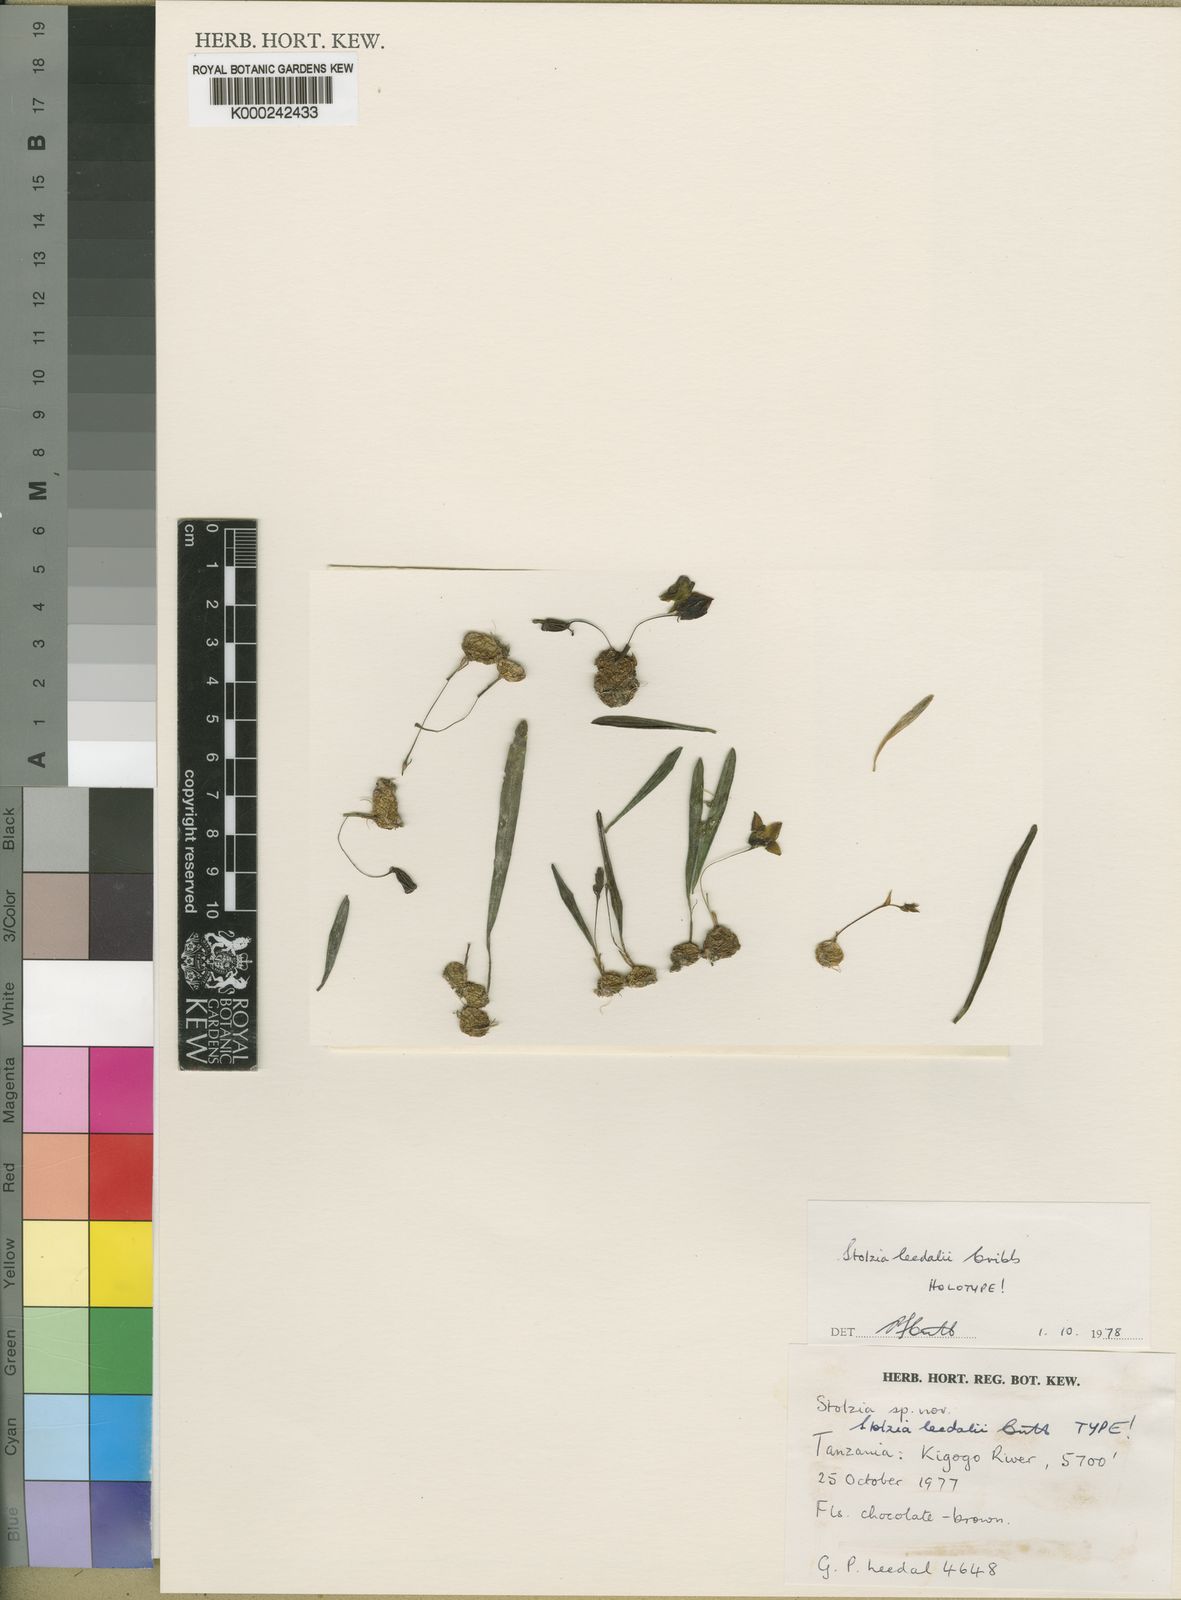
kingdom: Plantae
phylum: Tracheophyta
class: Liliopsida
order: Asparagales
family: Orchidaceae
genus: Porpax
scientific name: Porpax leedalii
